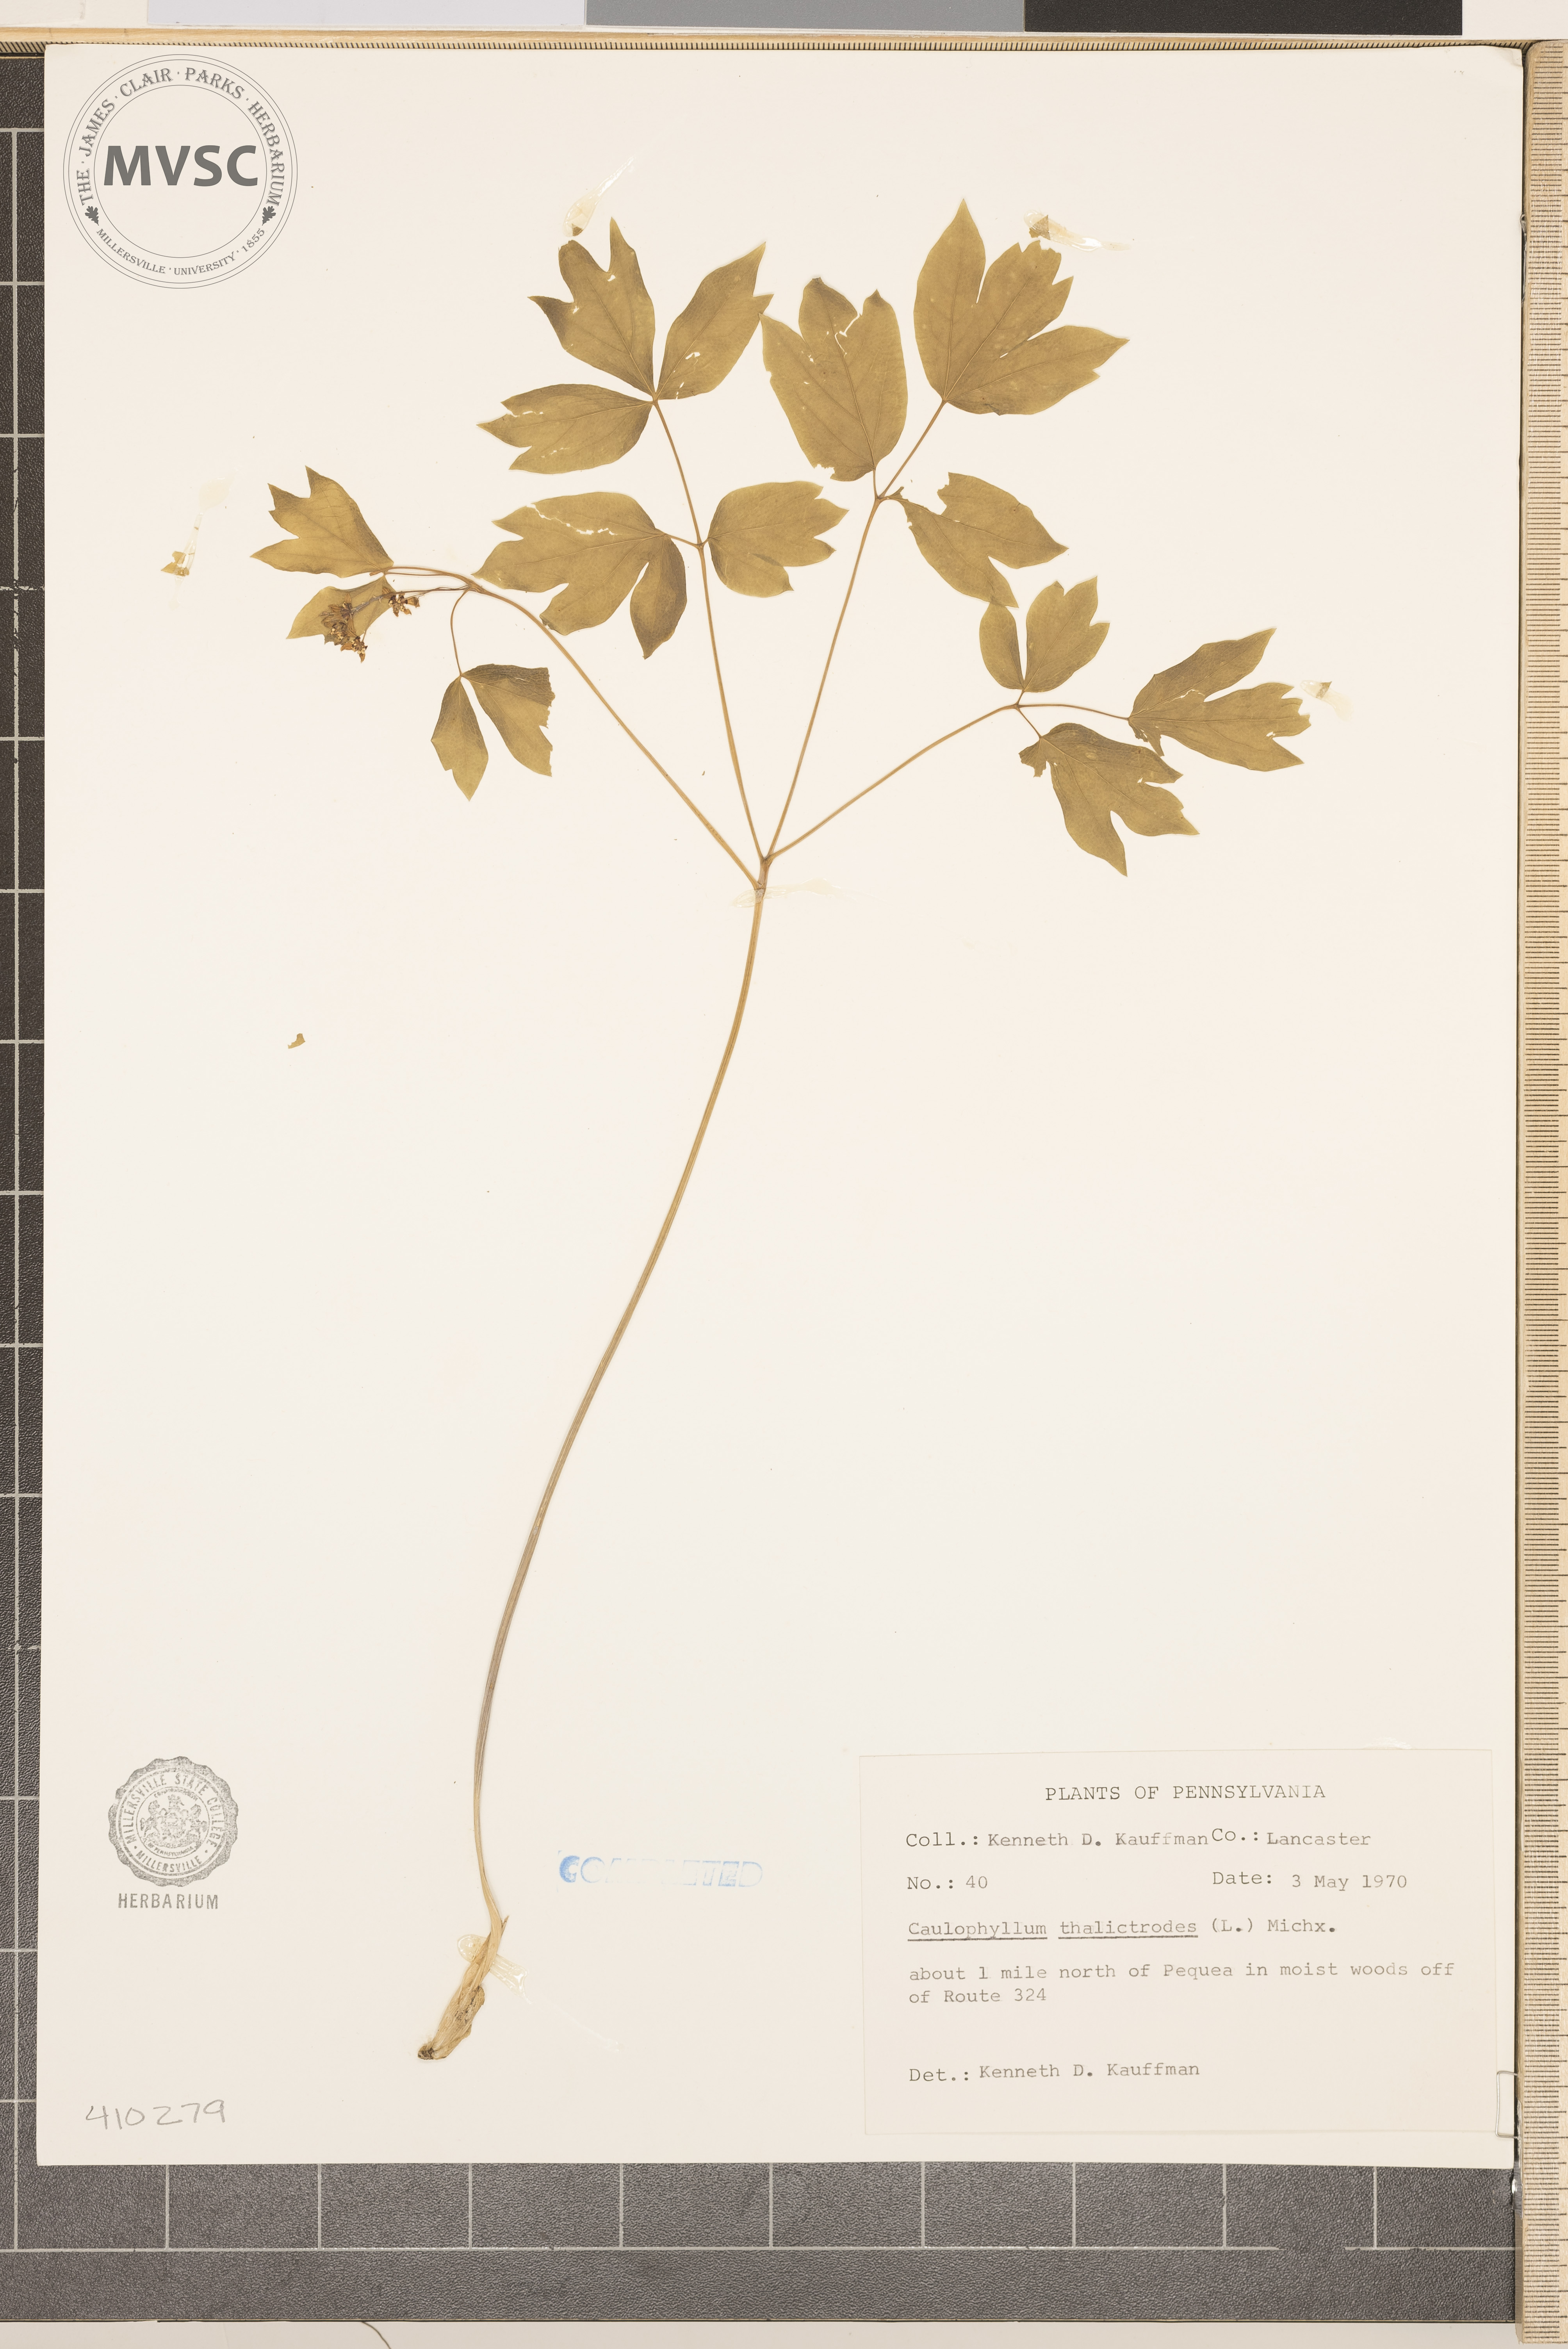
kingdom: Plantae
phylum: Tracheophyta
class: Magnoliopsida
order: Ranunculales
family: Berberidaceae
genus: Caulophyllum
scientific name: Caulophyllum thalictroides
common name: Blue cohosh
